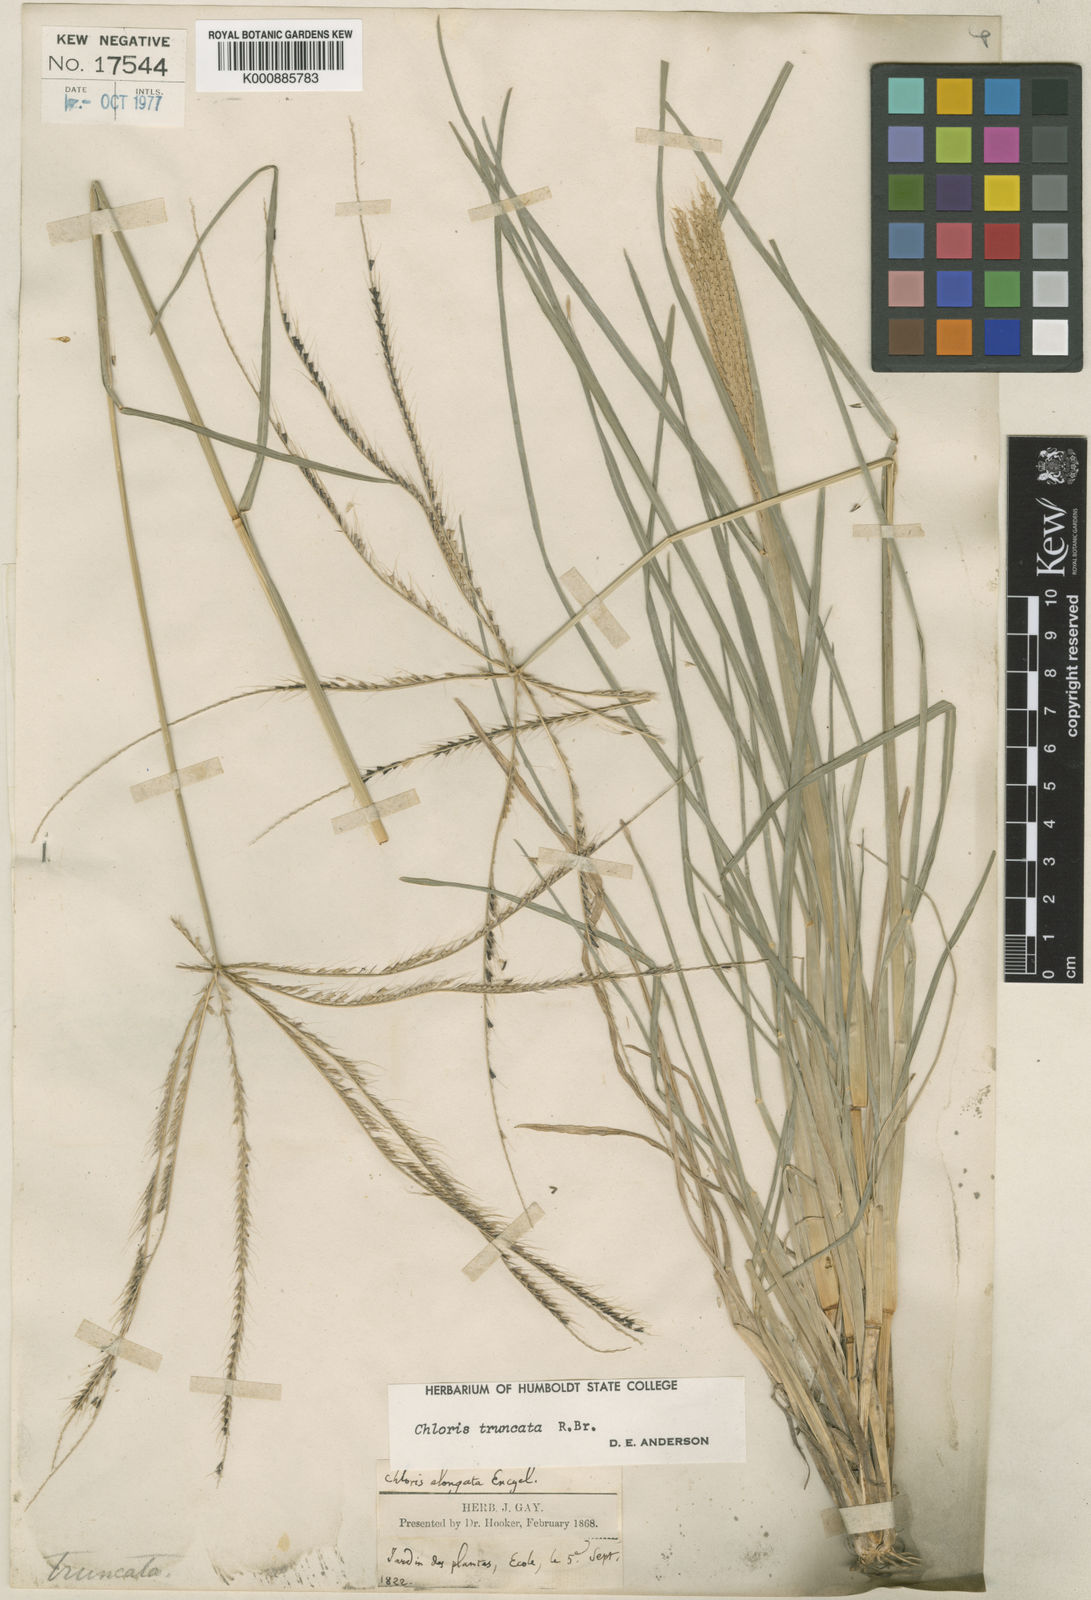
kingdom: Plantae
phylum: Tracheophyta
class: Liliopsida
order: Poales
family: Poaceae
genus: Chloris
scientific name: Chloris truncata
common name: Windmill-grass
